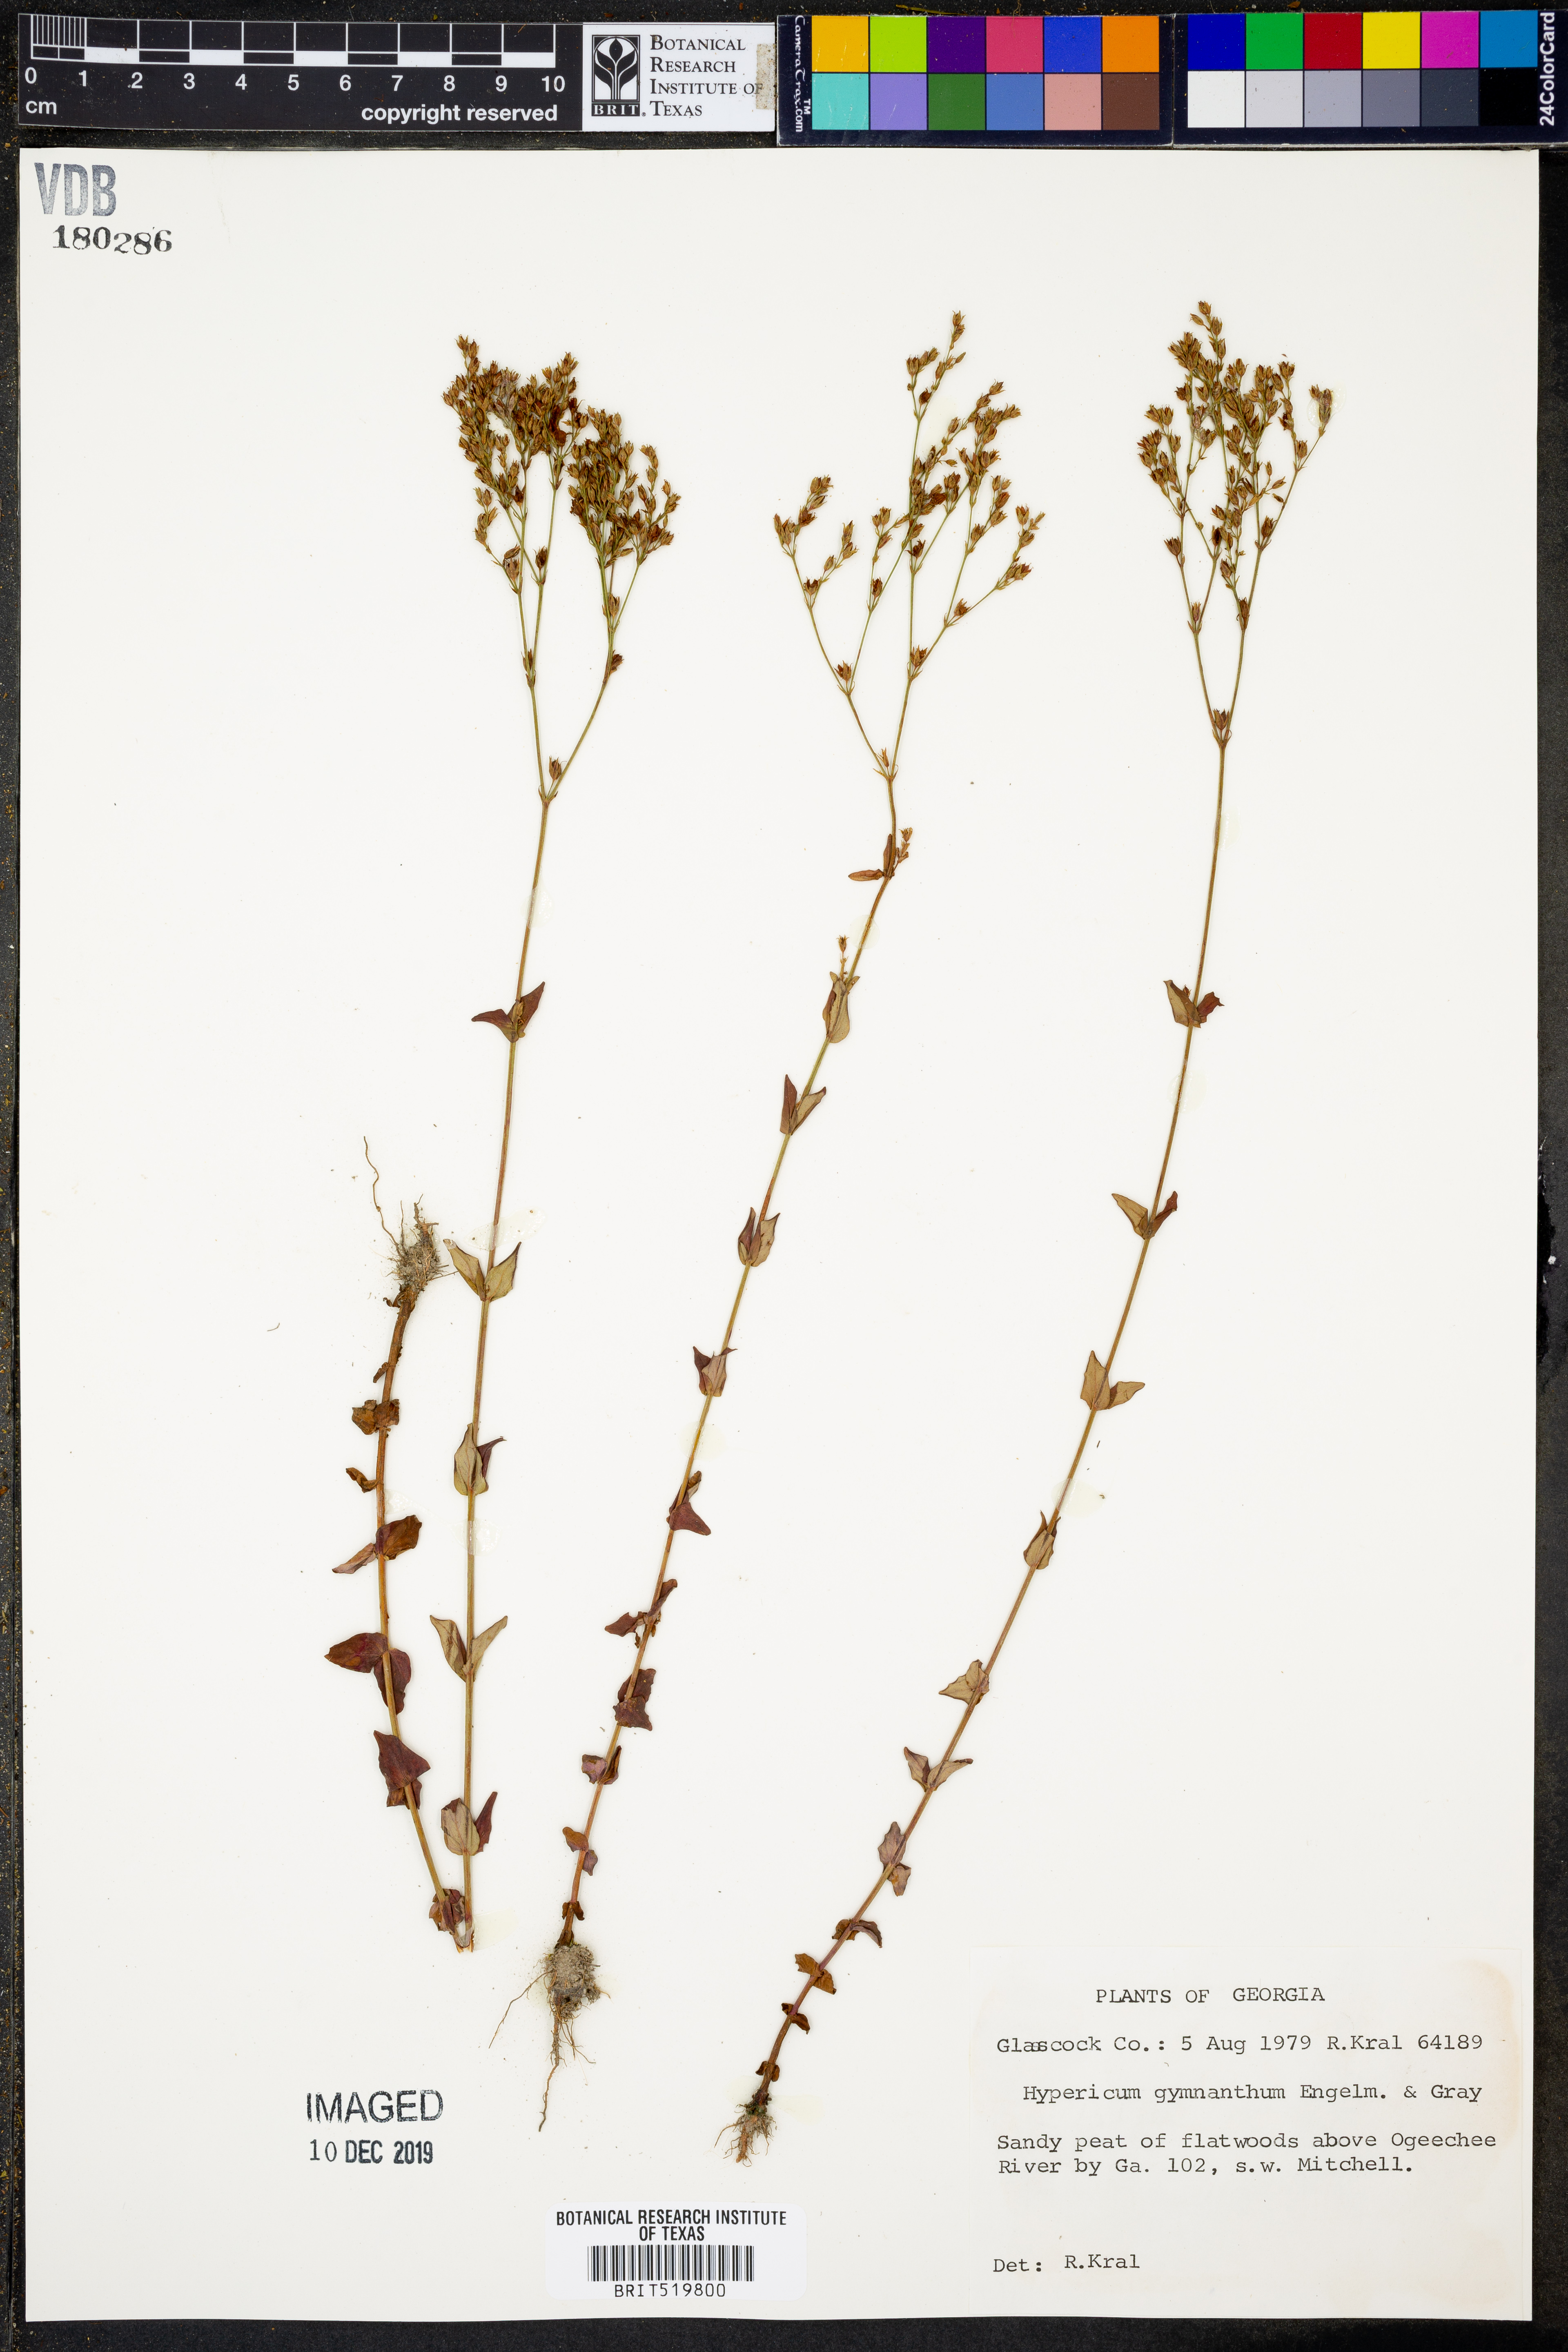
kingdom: Plantae
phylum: Tracheophyta
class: Magnoliopsida
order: Malpighiales
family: Hypericaceae
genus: Hypericum
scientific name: Hypericum gymnanthum
